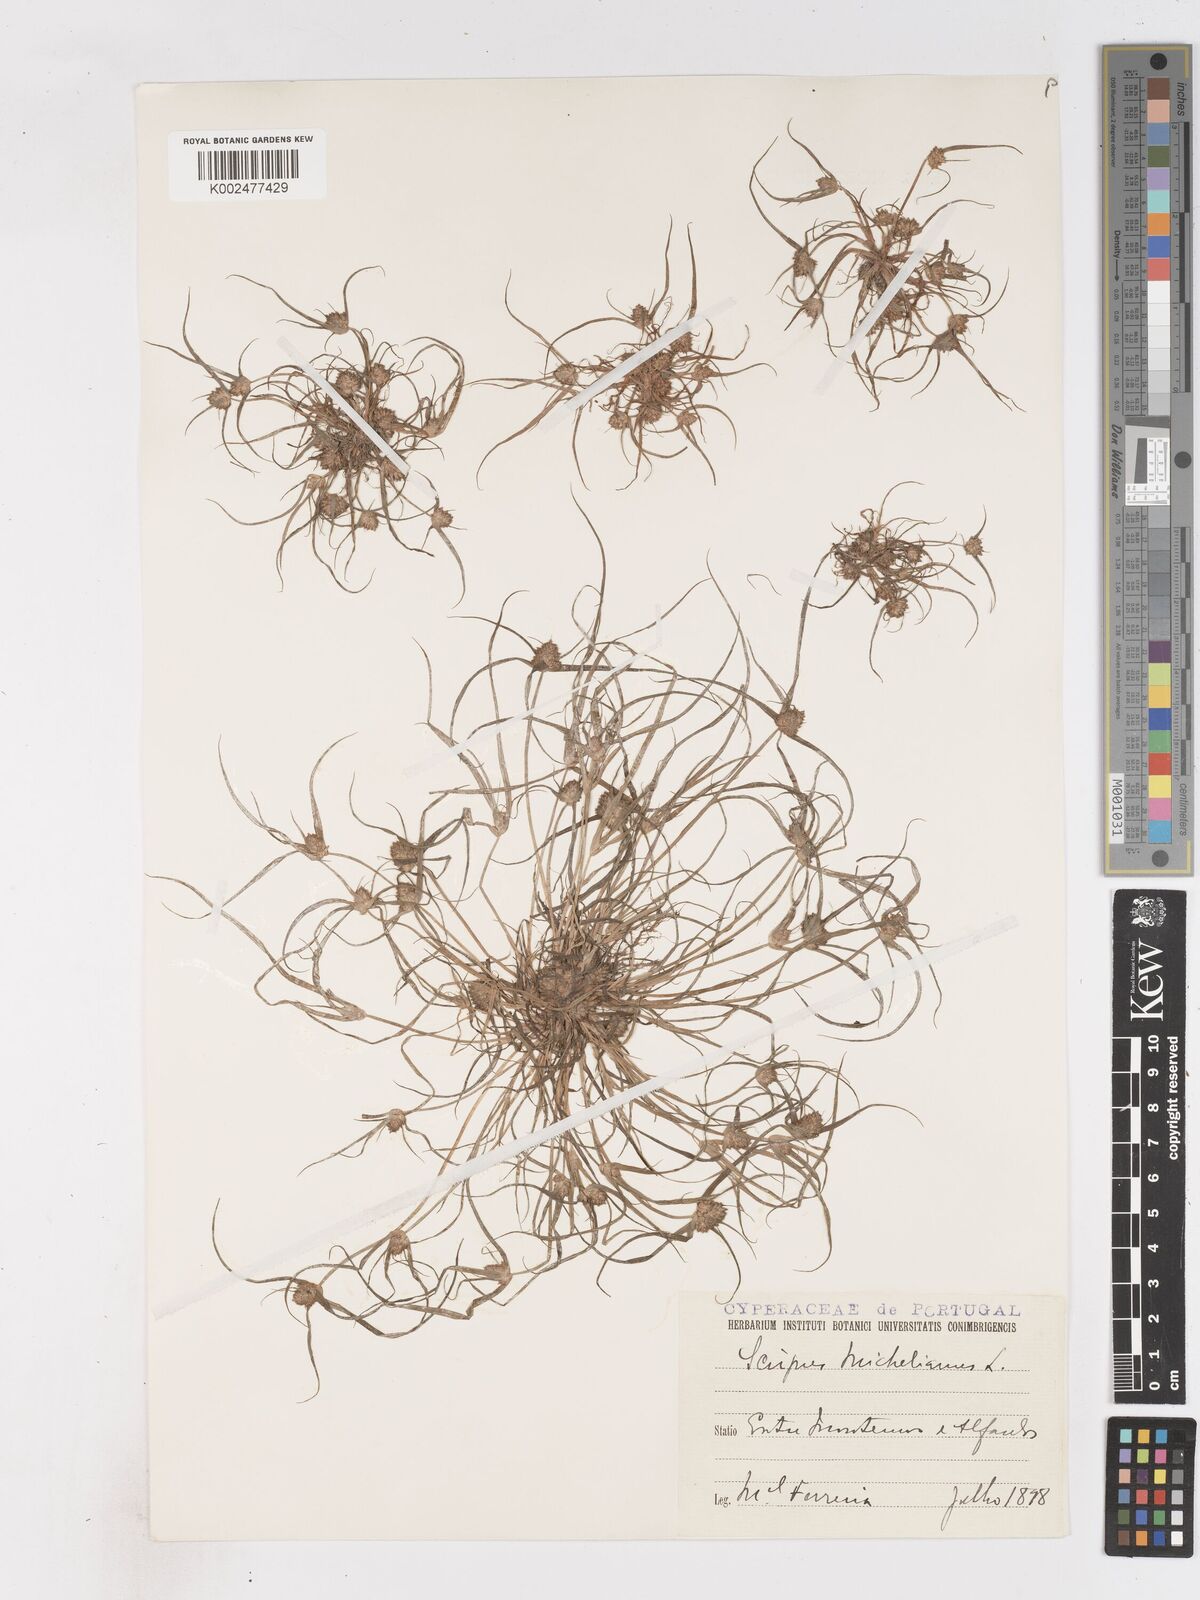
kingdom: Plantae
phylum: Tracheophyta
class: Liliopsida
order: Poales
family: Cyperaceae
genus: Cyperus
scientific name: Cyperus michelianus
